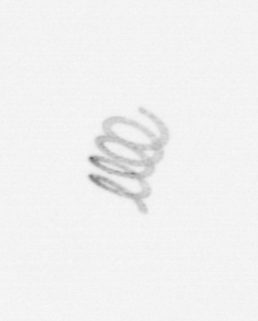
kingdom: Chromista
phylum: Ochrophyta
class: Bacillariophyceae
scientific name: Bacillariophyceae
